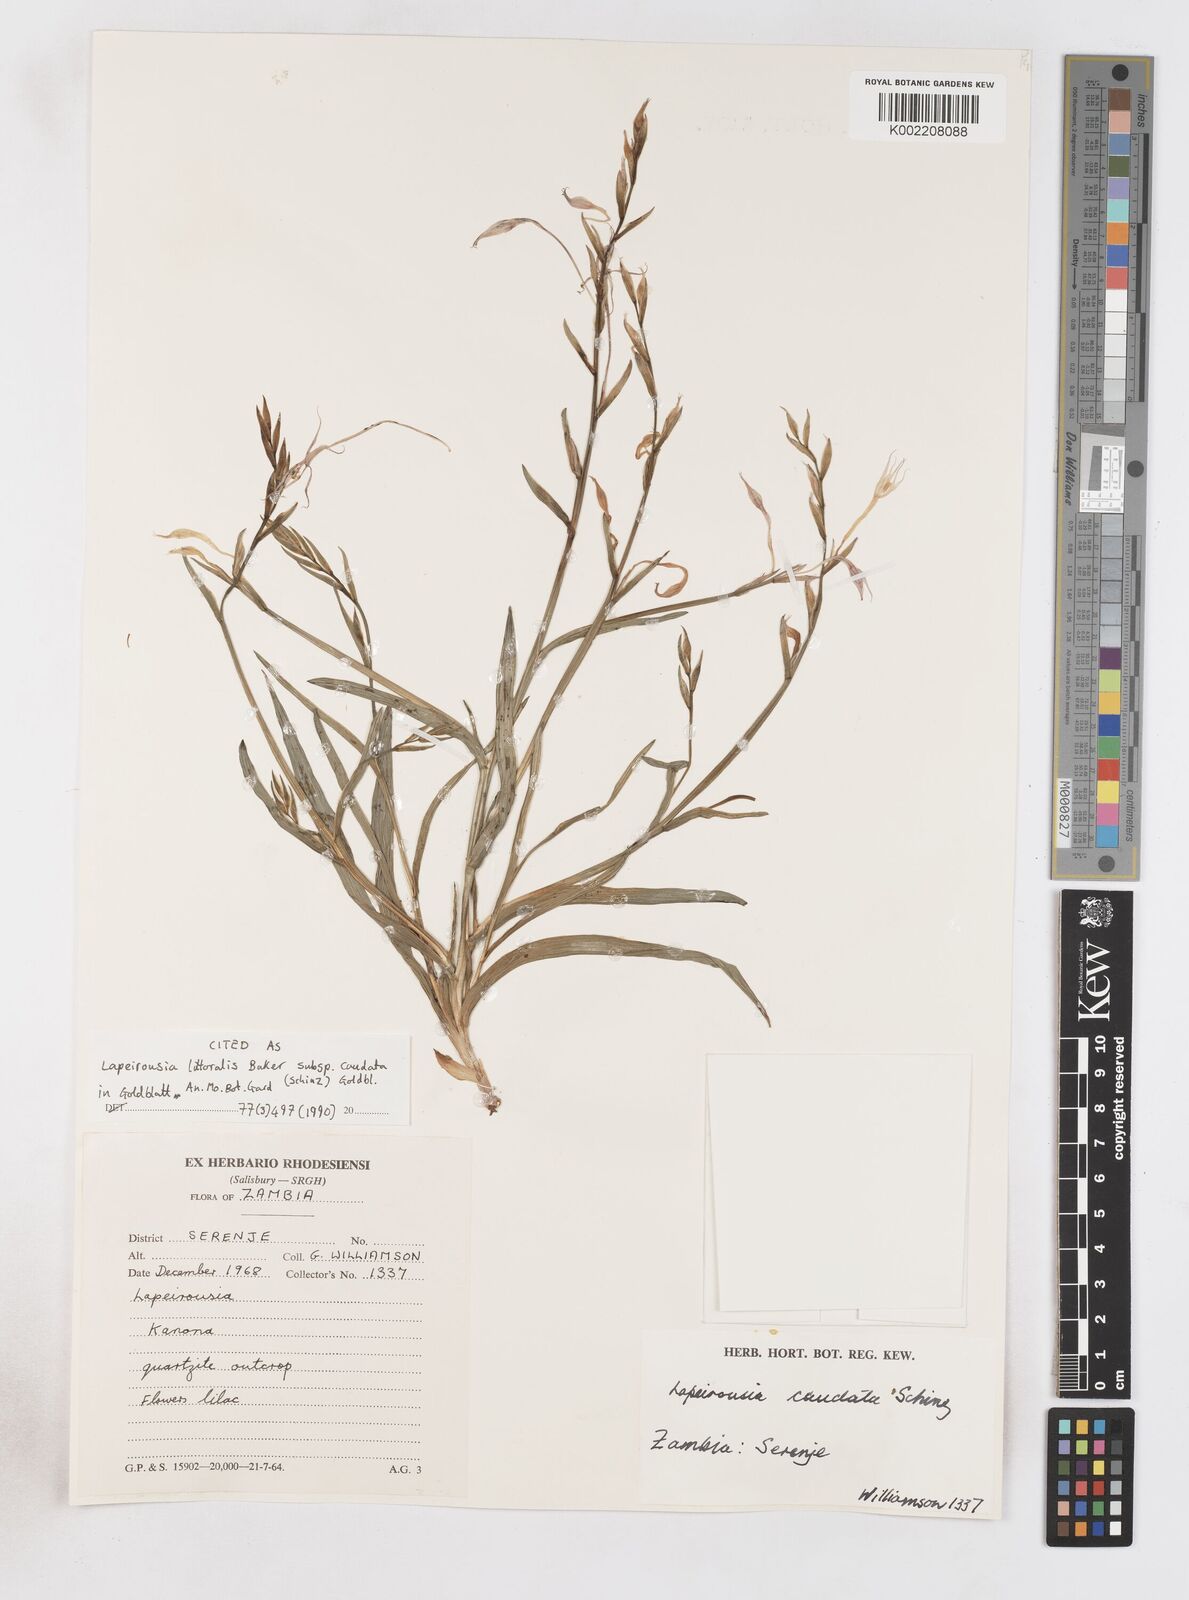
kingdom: Plantae
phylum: Tracheophyta
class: Liliopsida
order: Asparagales
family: Iridaceae
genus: Lapeirousia
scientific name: Lapeirousia caudata
